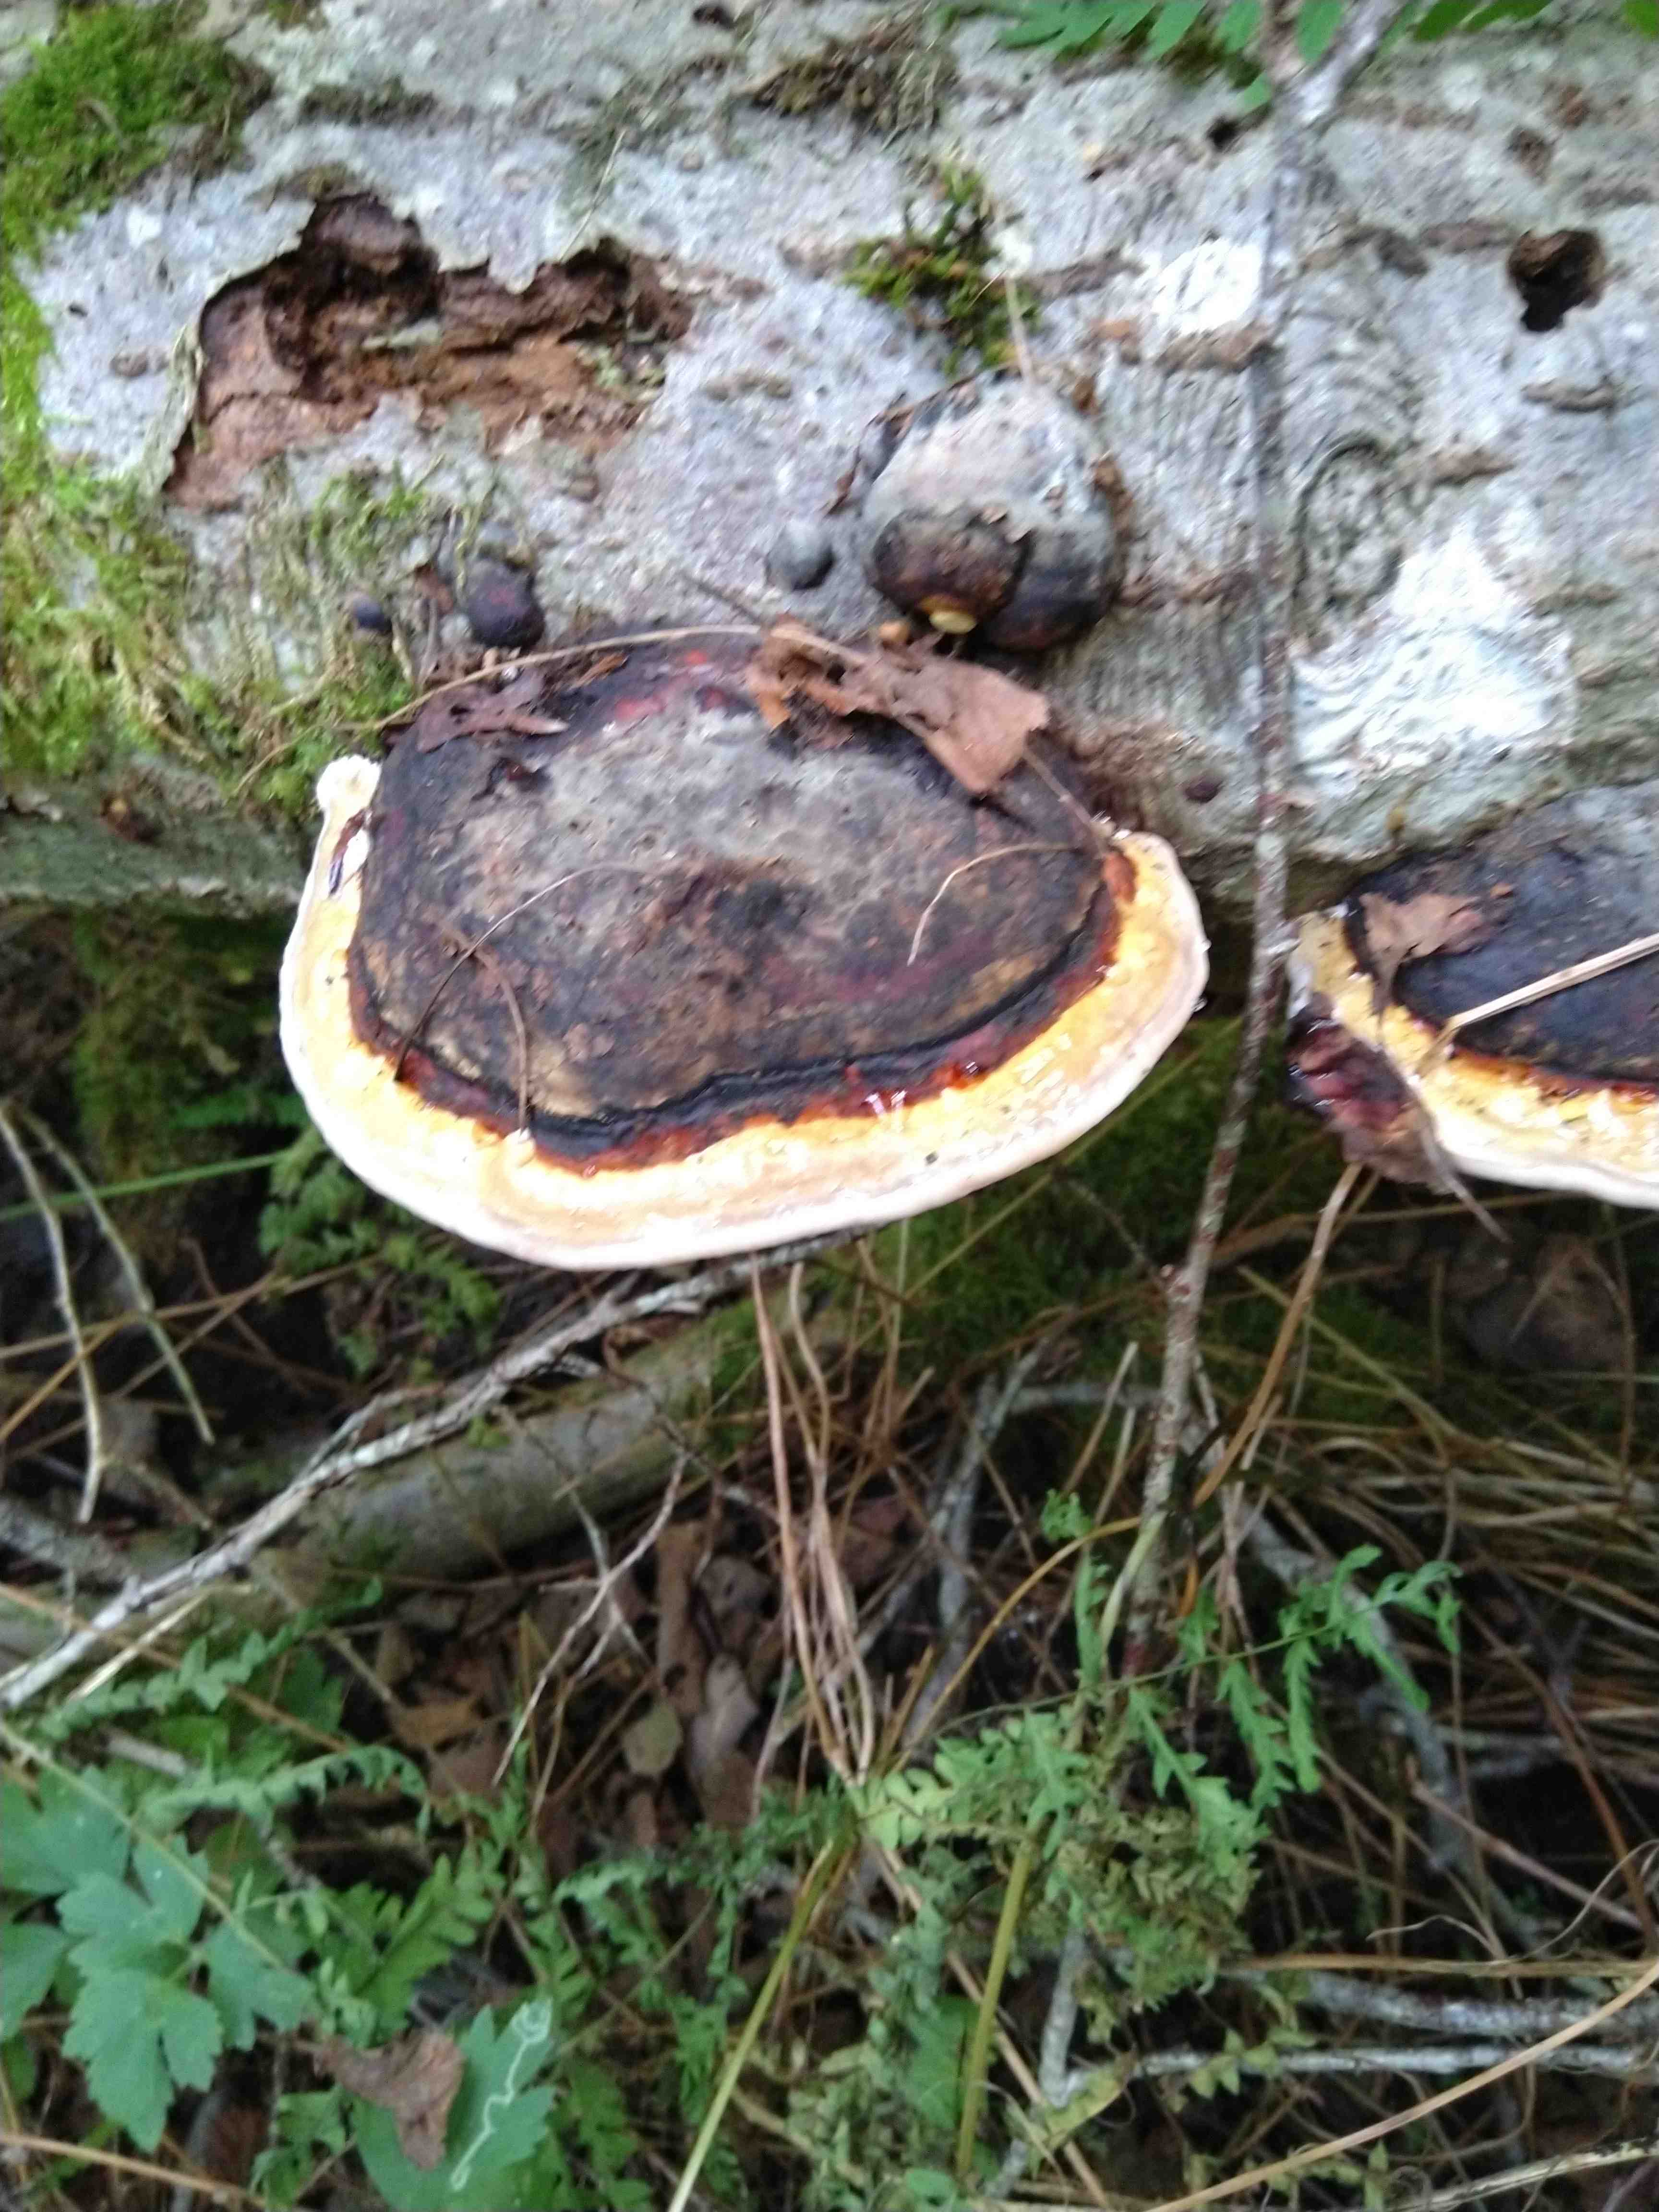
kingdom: Fungi
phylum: Basidiomycota
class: Agaricomycetes
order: Polyporales
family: Fomitopsidaceae
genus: Fomitopsis
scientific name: Fomitopsis pinicola
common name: randbæltet hovporesvamp
